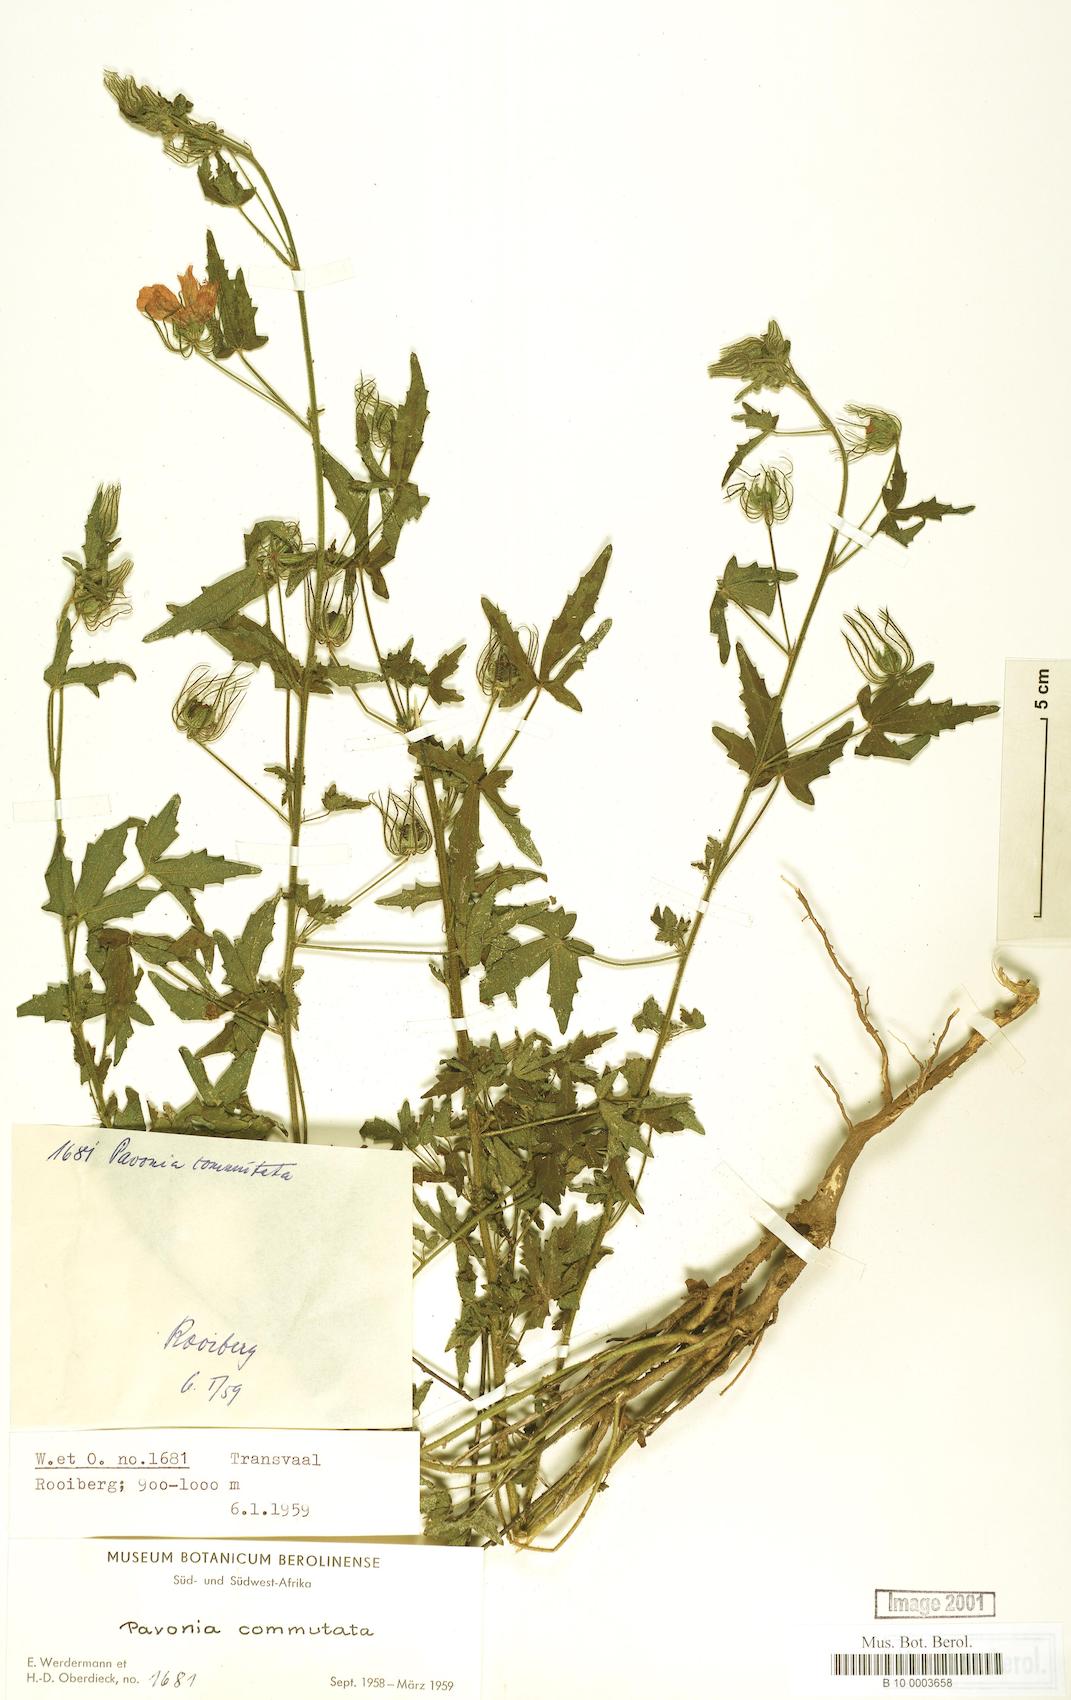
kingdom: Plantae
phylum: Tracheophyta
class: Magnoliopsida
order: Malvales
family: Malvaceae
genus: Pavonia
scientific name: Pavonia commutata
